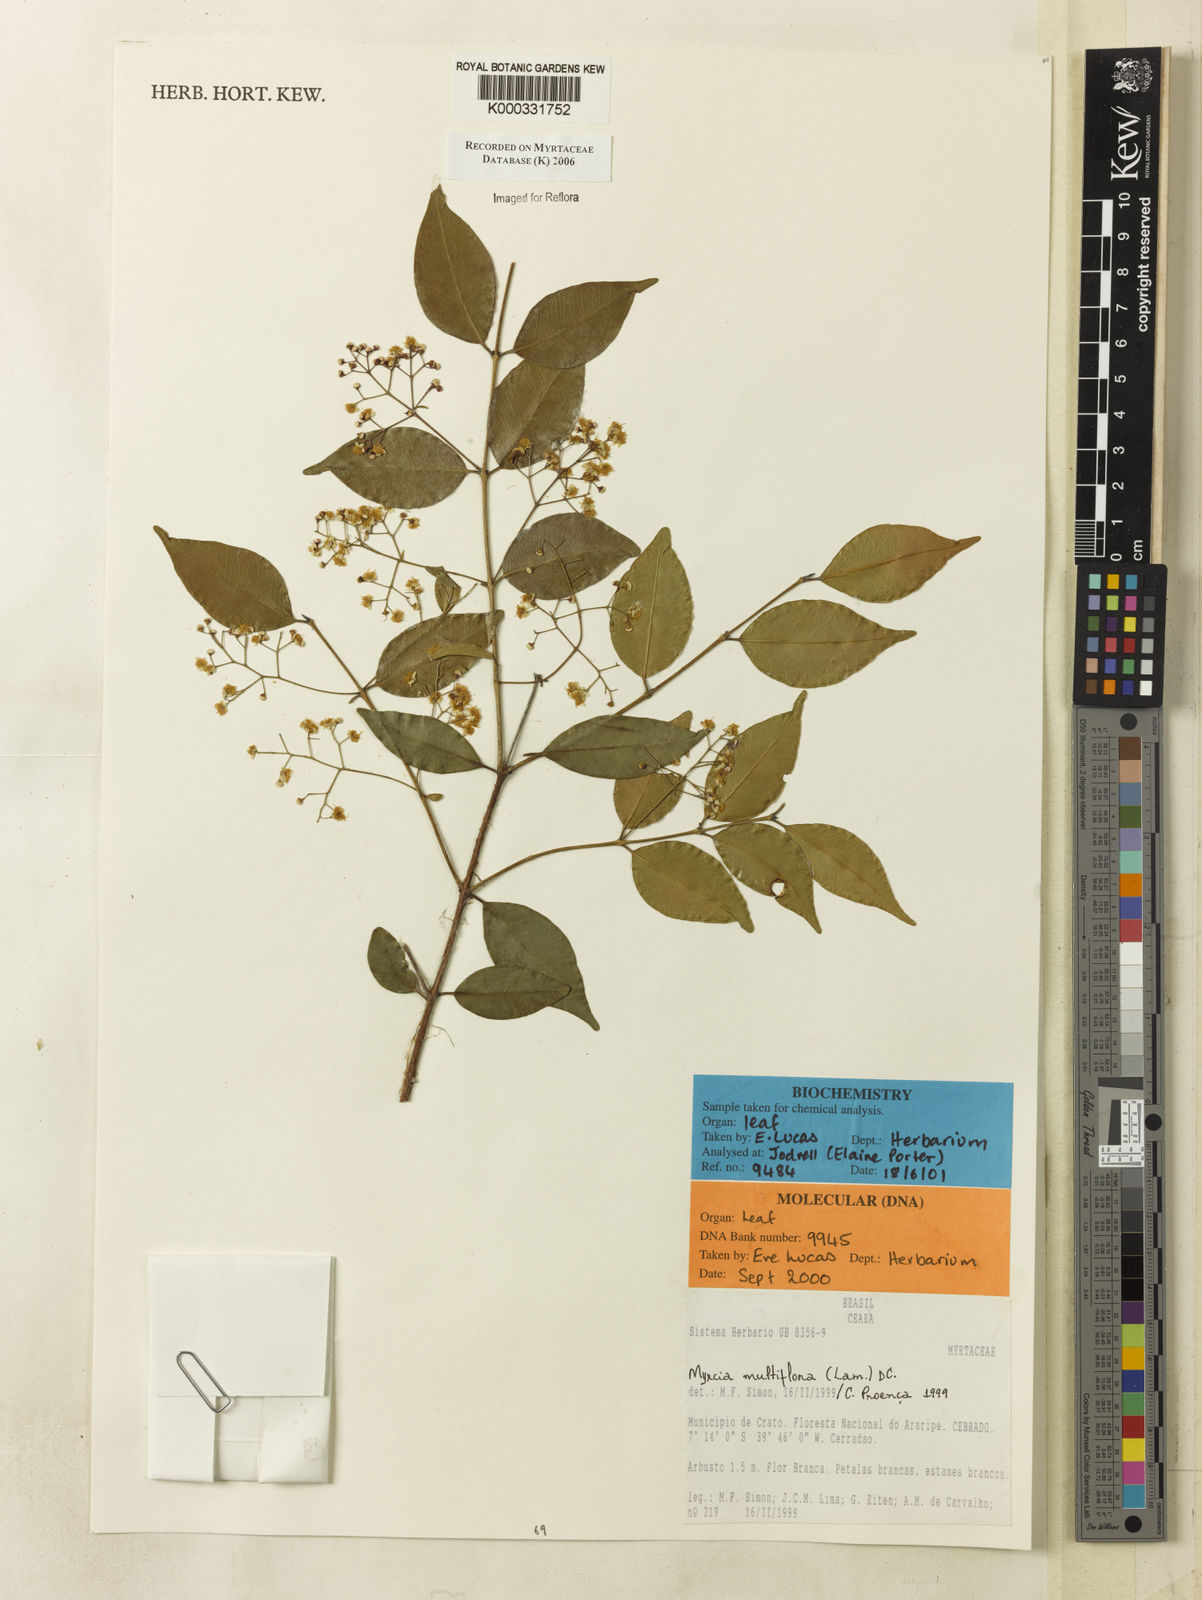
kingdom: Plantae
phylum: Tracheophyta
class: Magnoliopsida
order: Myrtales
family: Myrtaceae
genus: Myrcia
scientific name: Myrcia multiflora
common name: Pedra hume
